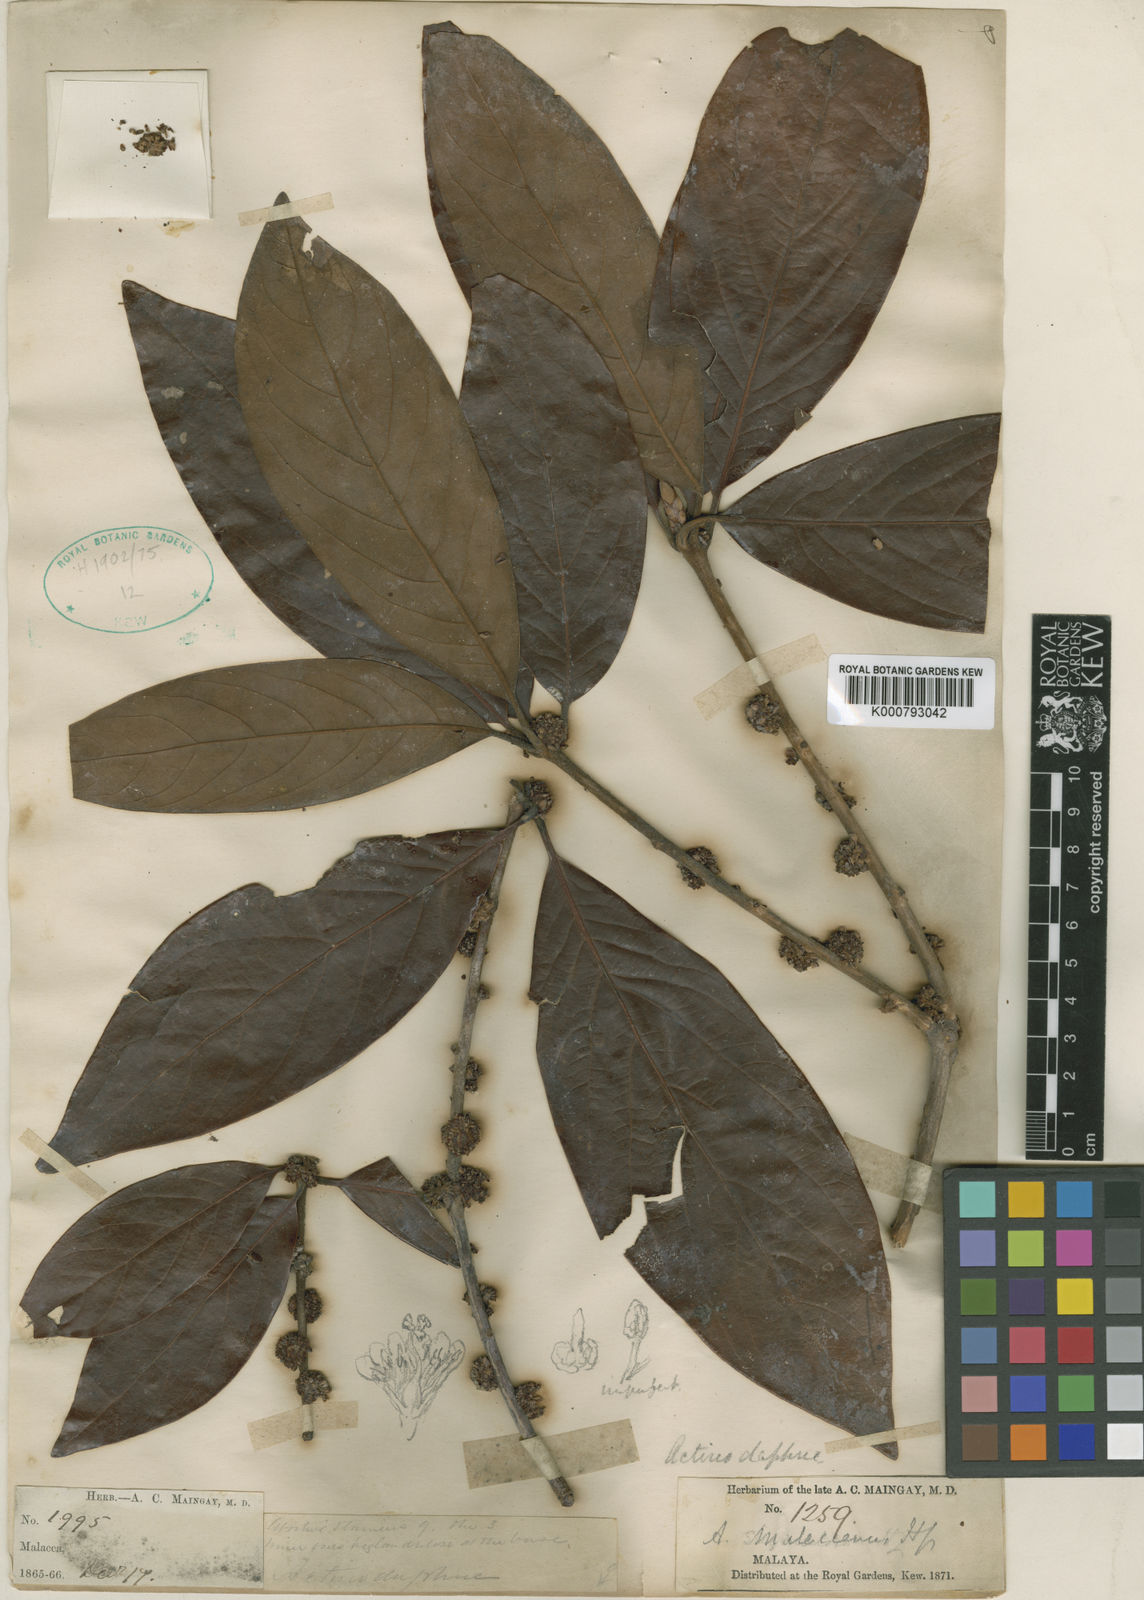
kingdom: Plantae
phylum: Tracheophyta
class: Magnoliopsida
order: Laurales
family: Lauraceae
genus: Actinodaphne
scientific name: Actinodaphne malaccensis
